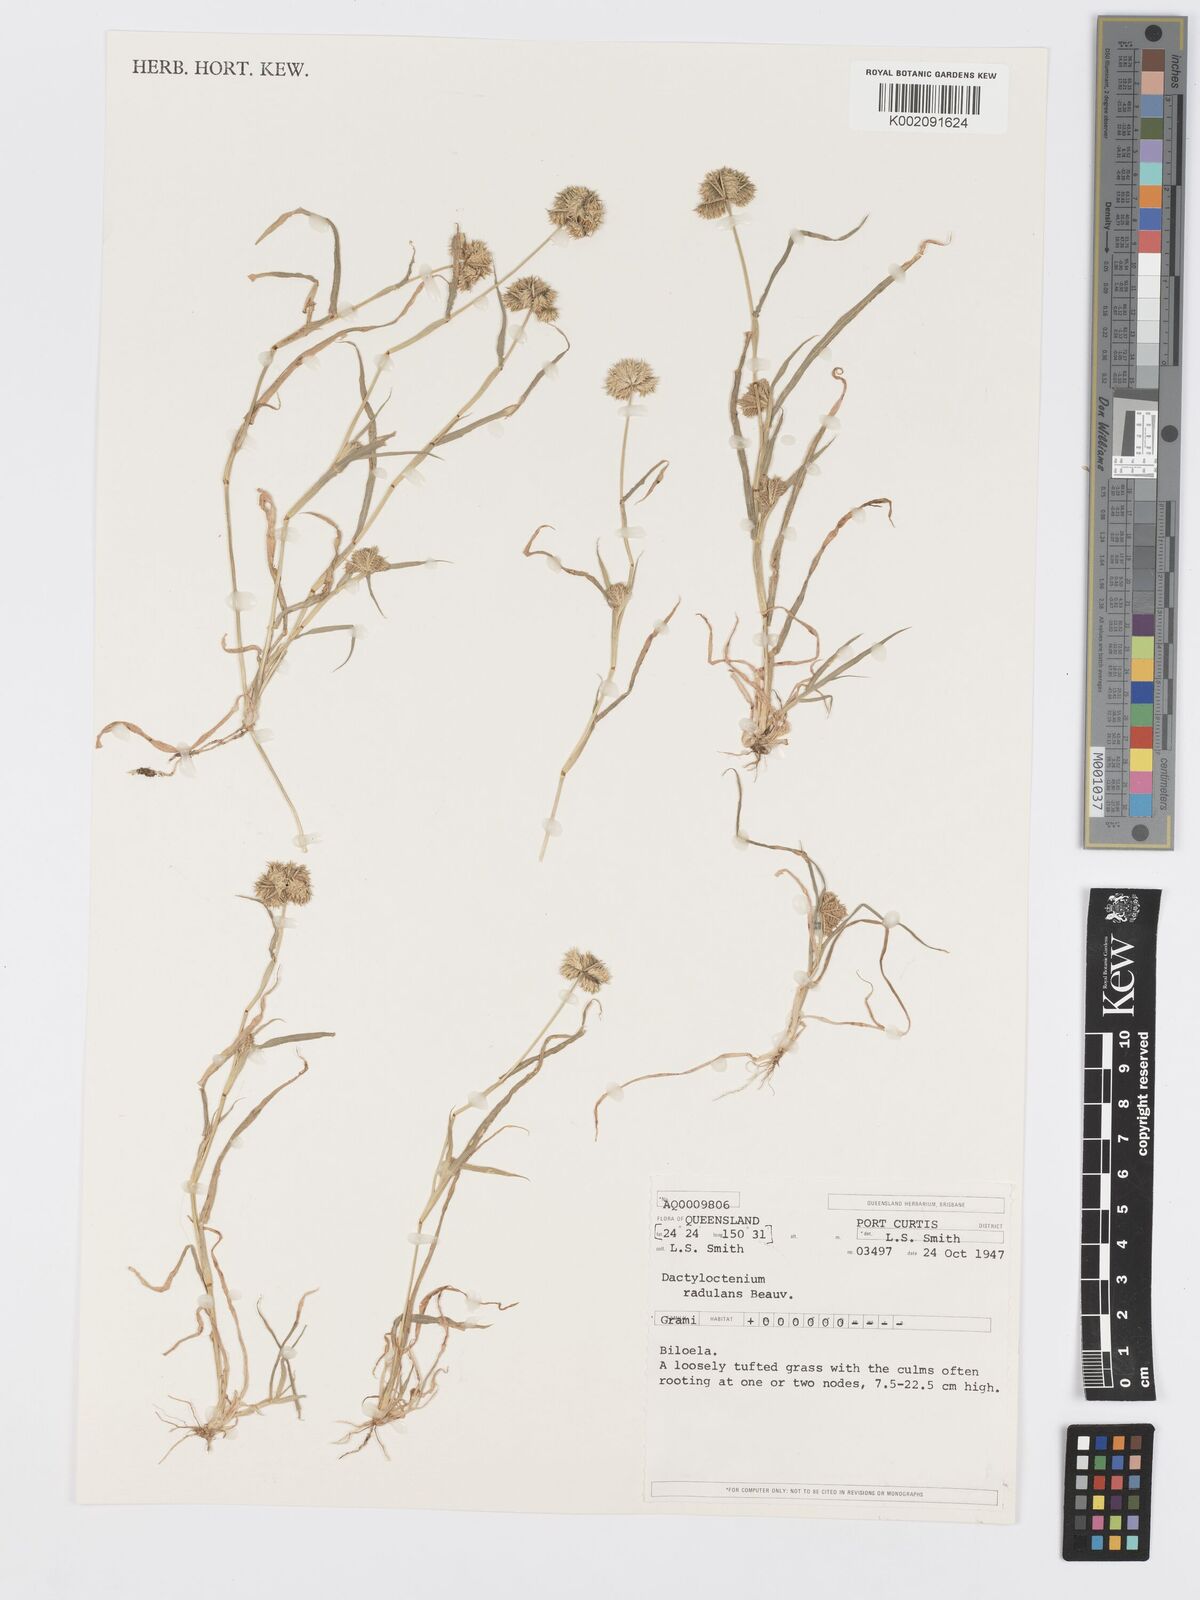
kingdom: Plantae
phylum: Tracheophyta
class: Liliopsida
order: Poales
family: Poaceae
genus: Dactyloctenium
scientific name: Dactyloctenium radulans
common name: Button-grass
